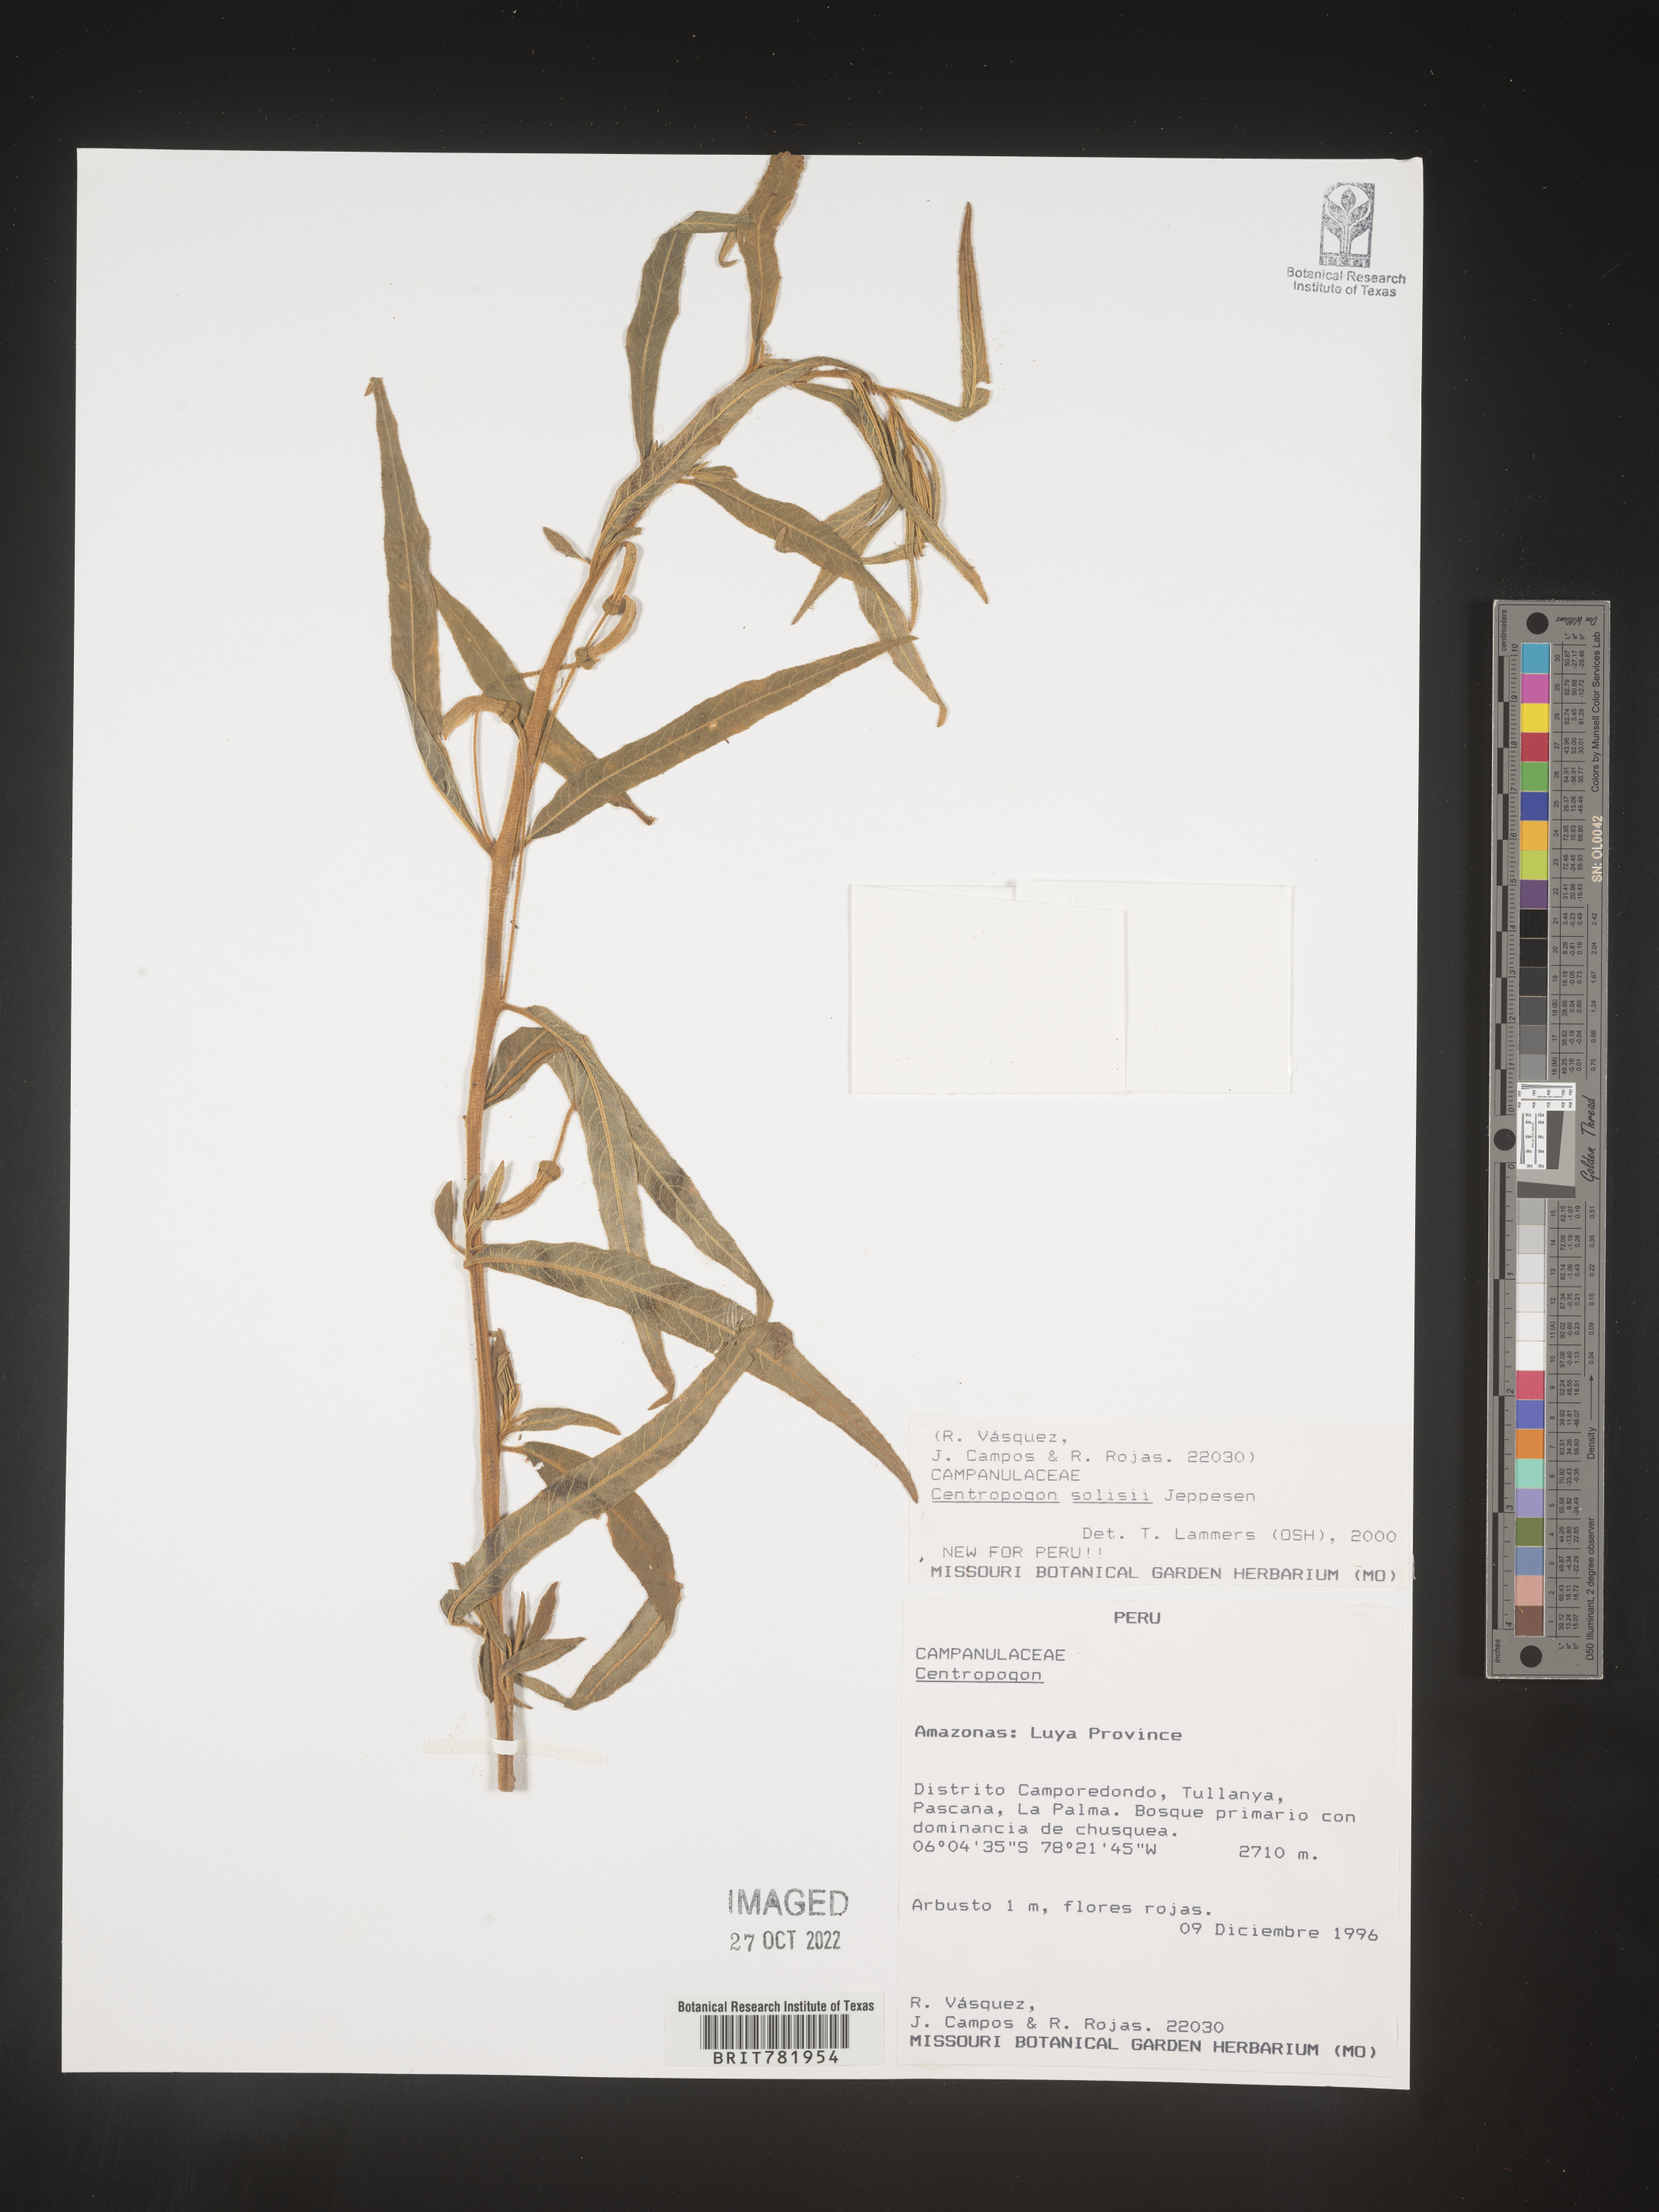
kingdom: Plantae
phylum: Tracheophyta
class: Magnoliopsida
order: Asterales
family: Campanulaceae
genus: Centropogon
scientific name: Centropogon
